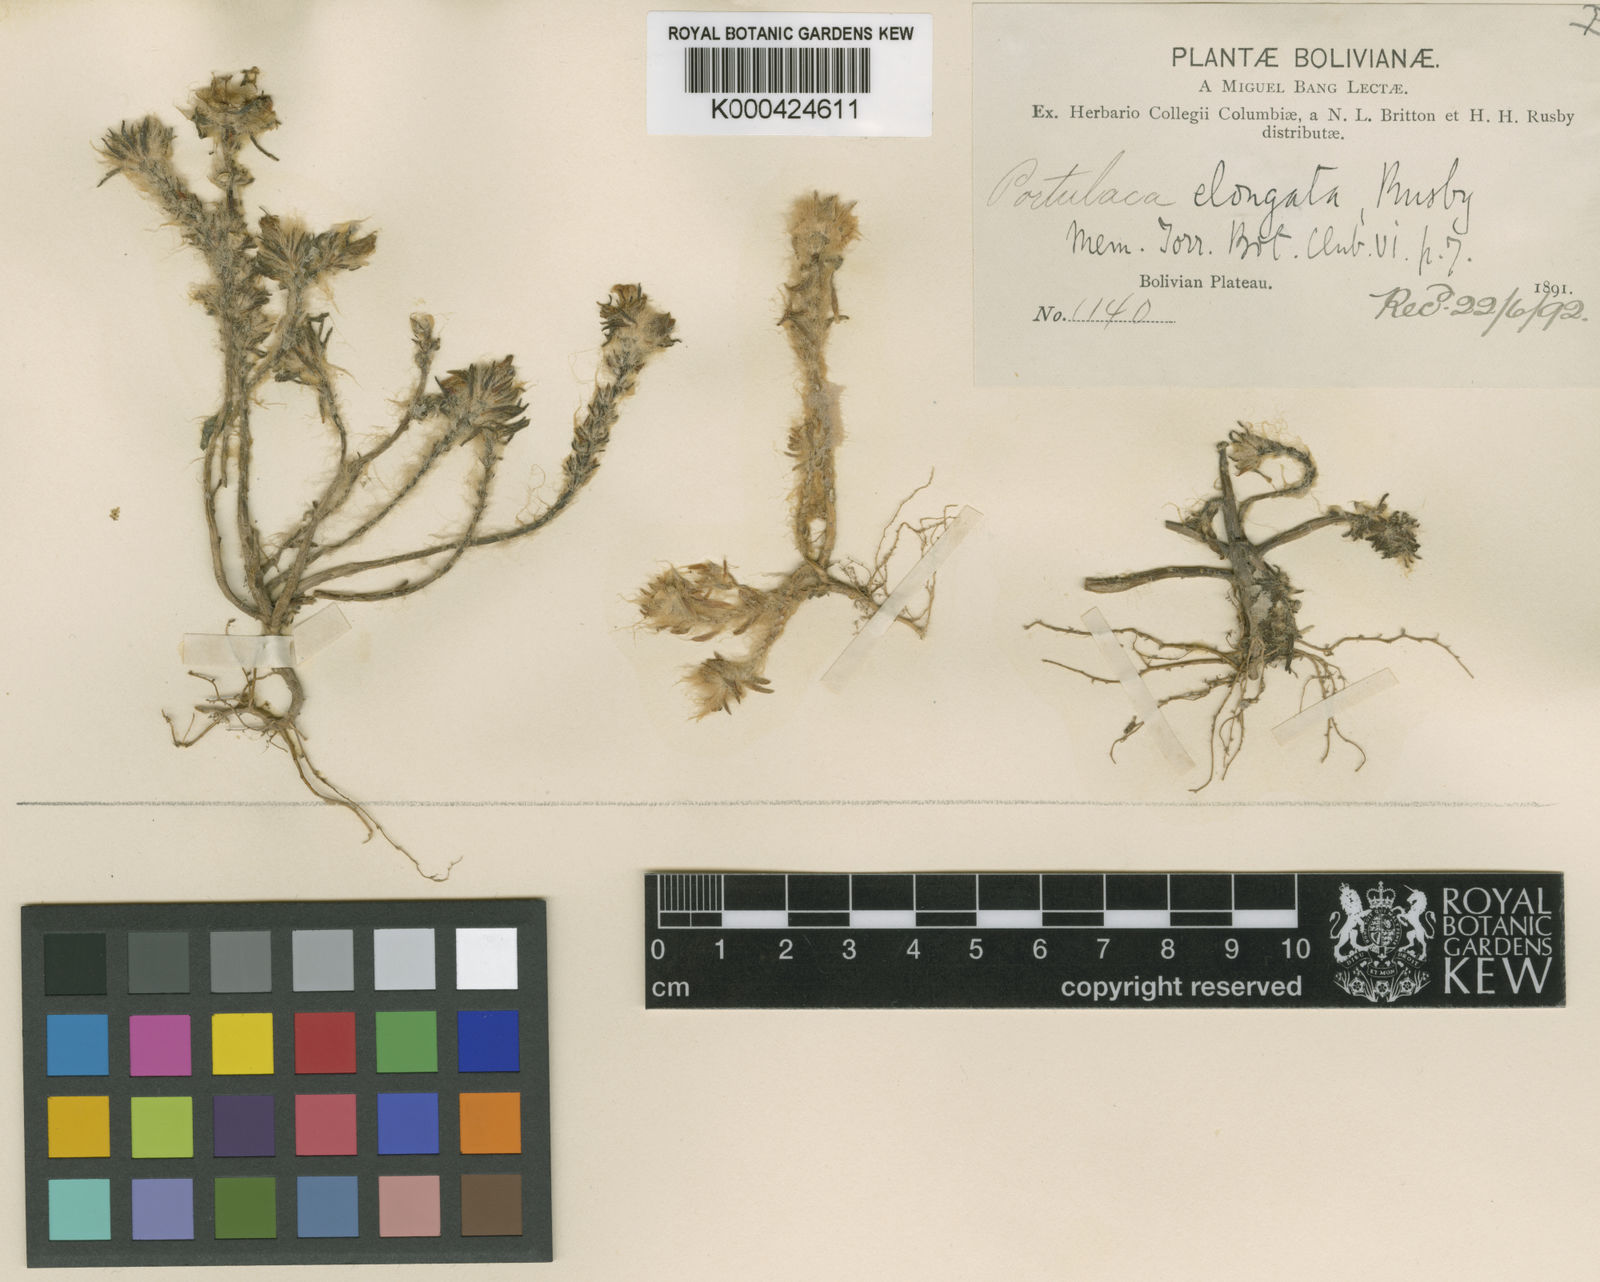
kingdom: Plantae
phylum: Tracheophyta
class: Magnoliopsida
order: Caryophyllales
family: Portulacaceae
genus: Portulaca
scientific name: Portulaca elongata
